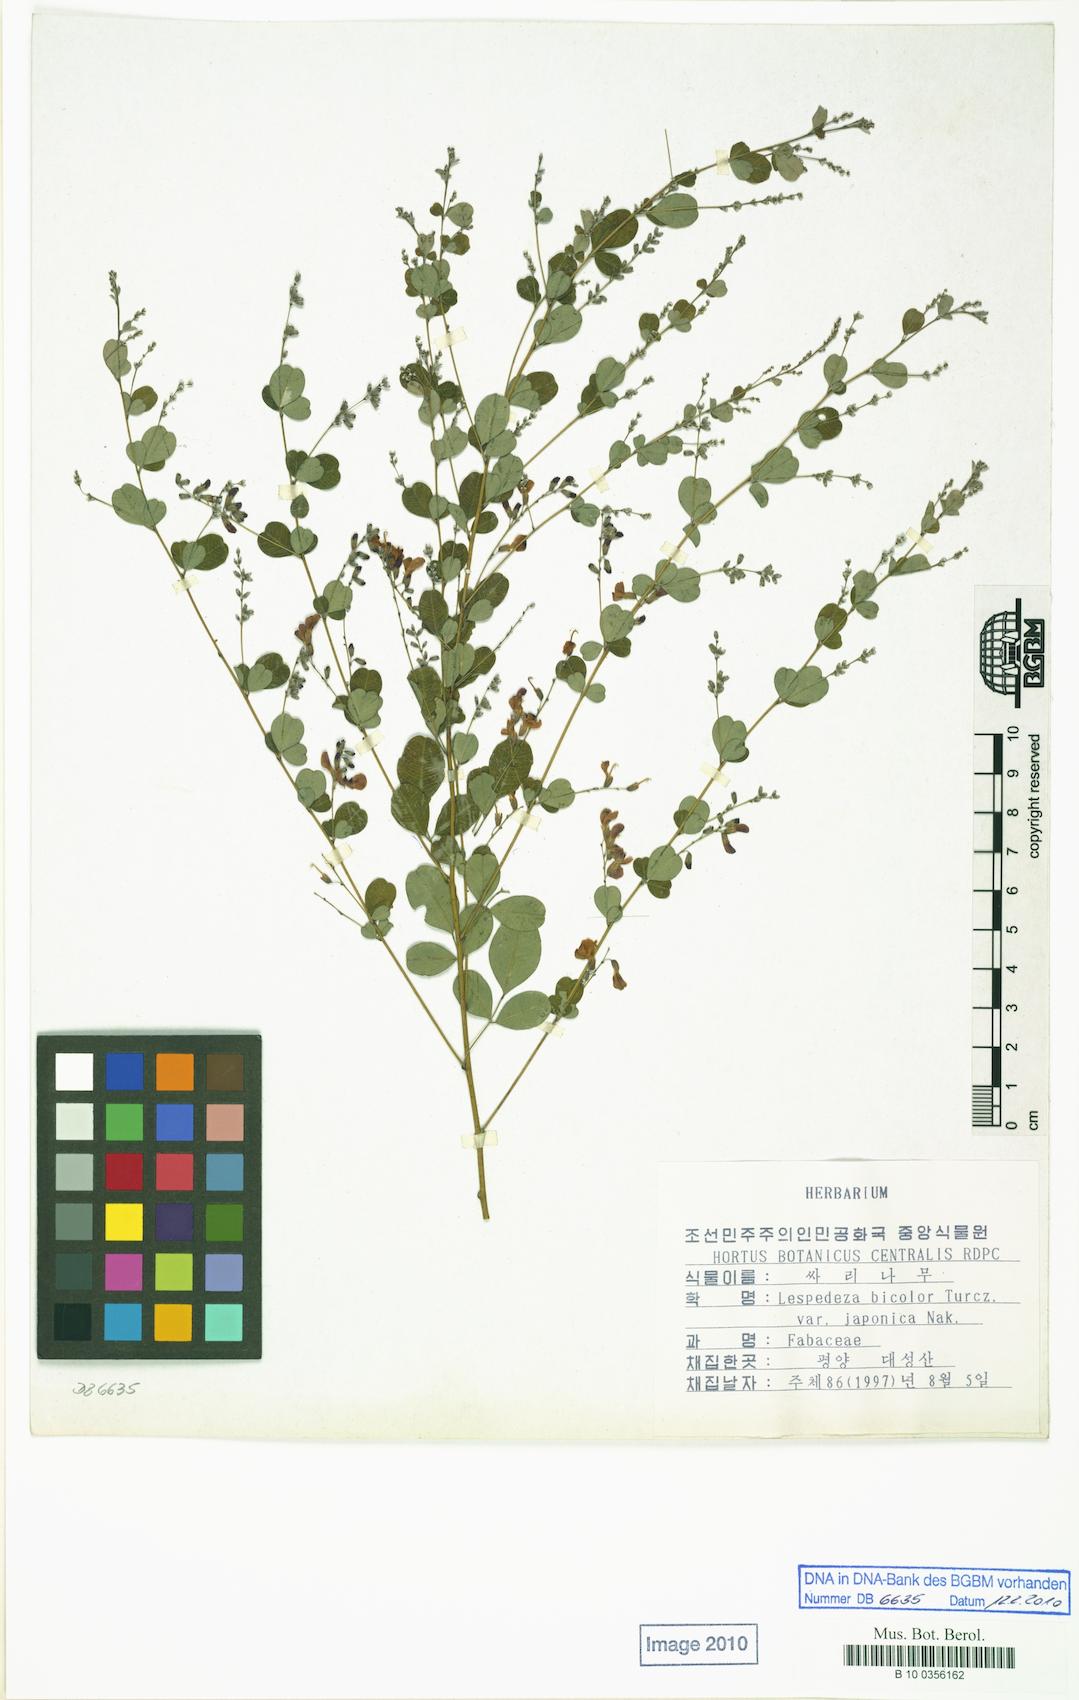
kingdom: Plantae
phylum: Tracheophyta
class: Magnoliopsida
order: Fabales
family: Fabaceae
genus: Lespedeza
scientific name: Lespedeza bicolor
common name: Shrub lespedeza
